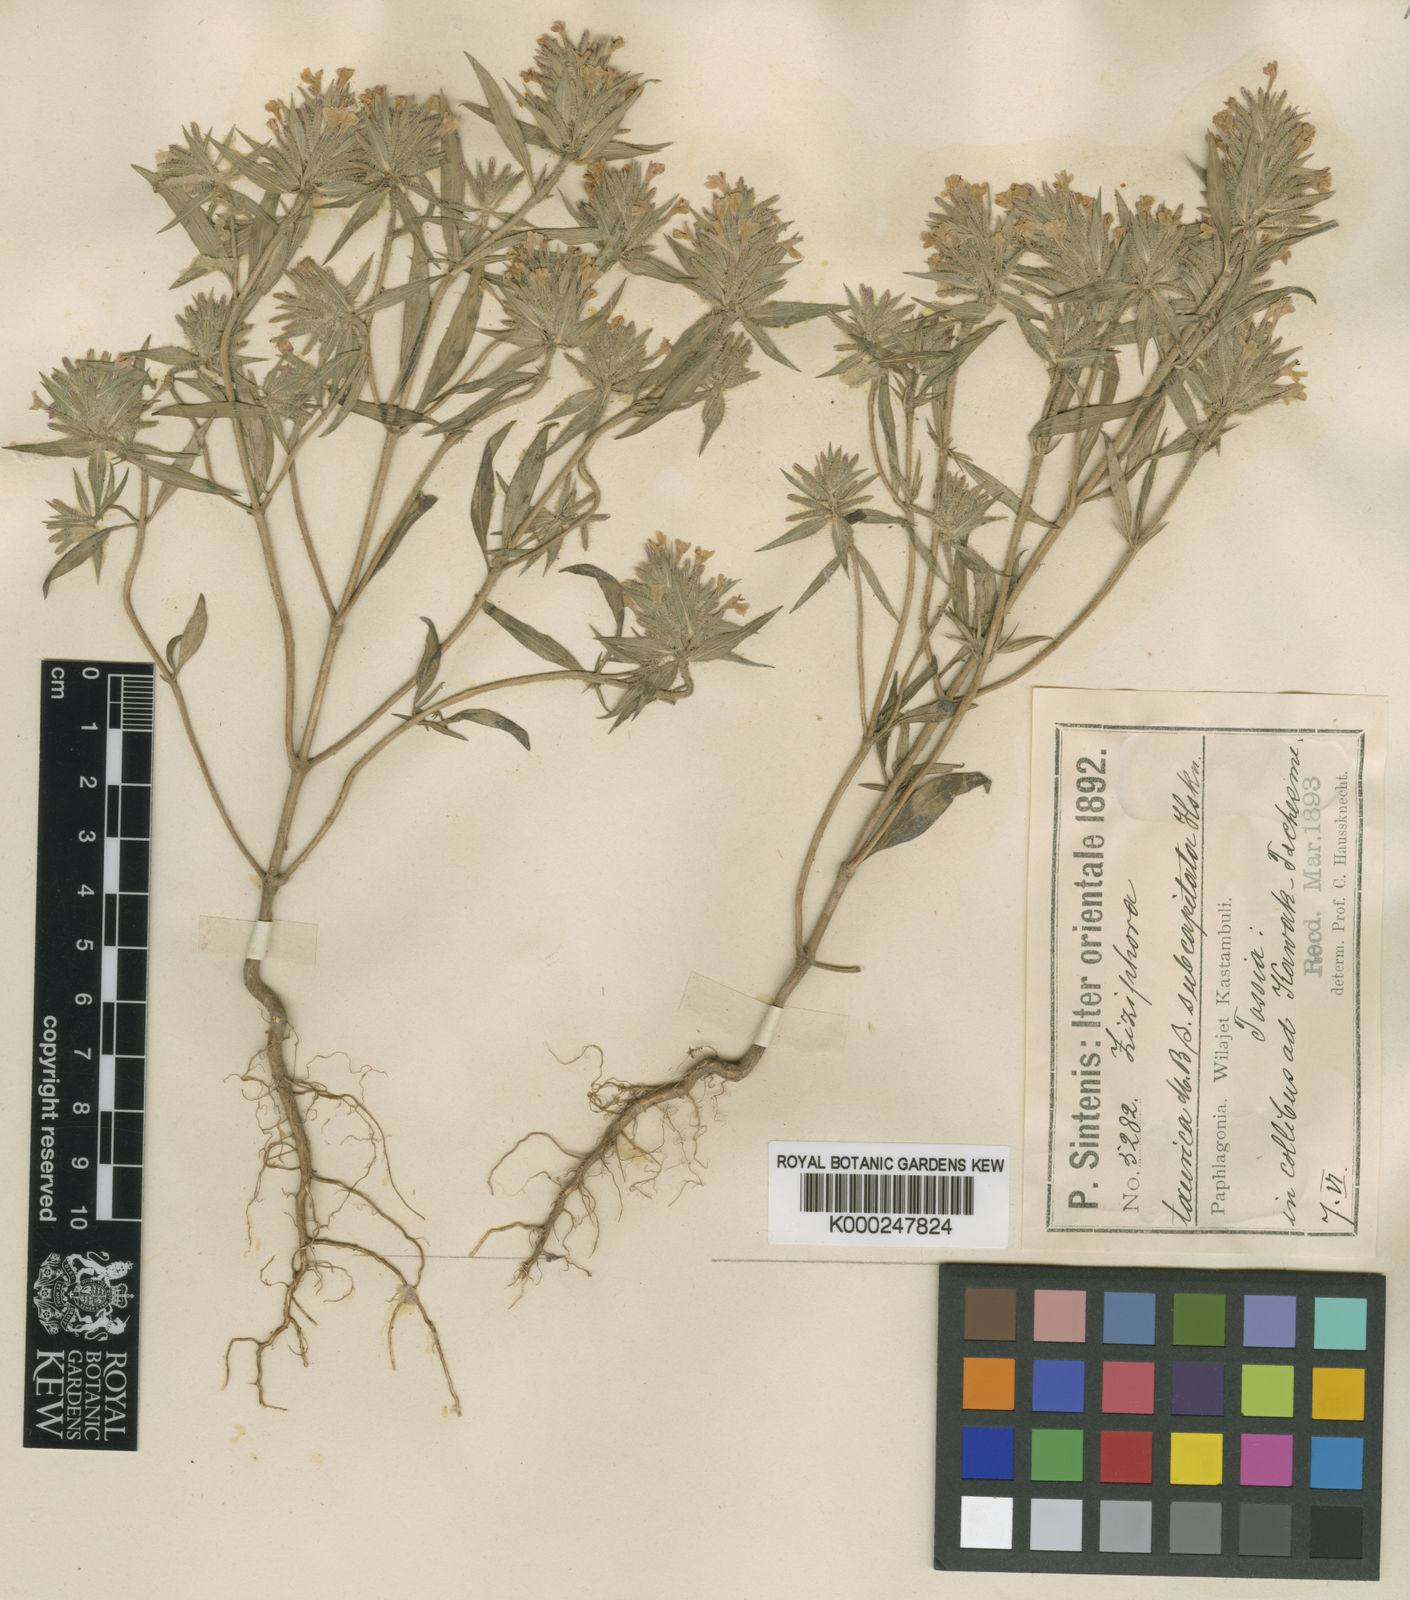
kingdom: Plantae
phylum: Tracheophyta
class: Magnoliopsida
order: Lamiales
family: Lamiaceae
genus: Ziziphora
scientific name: Ziziphora taurica
